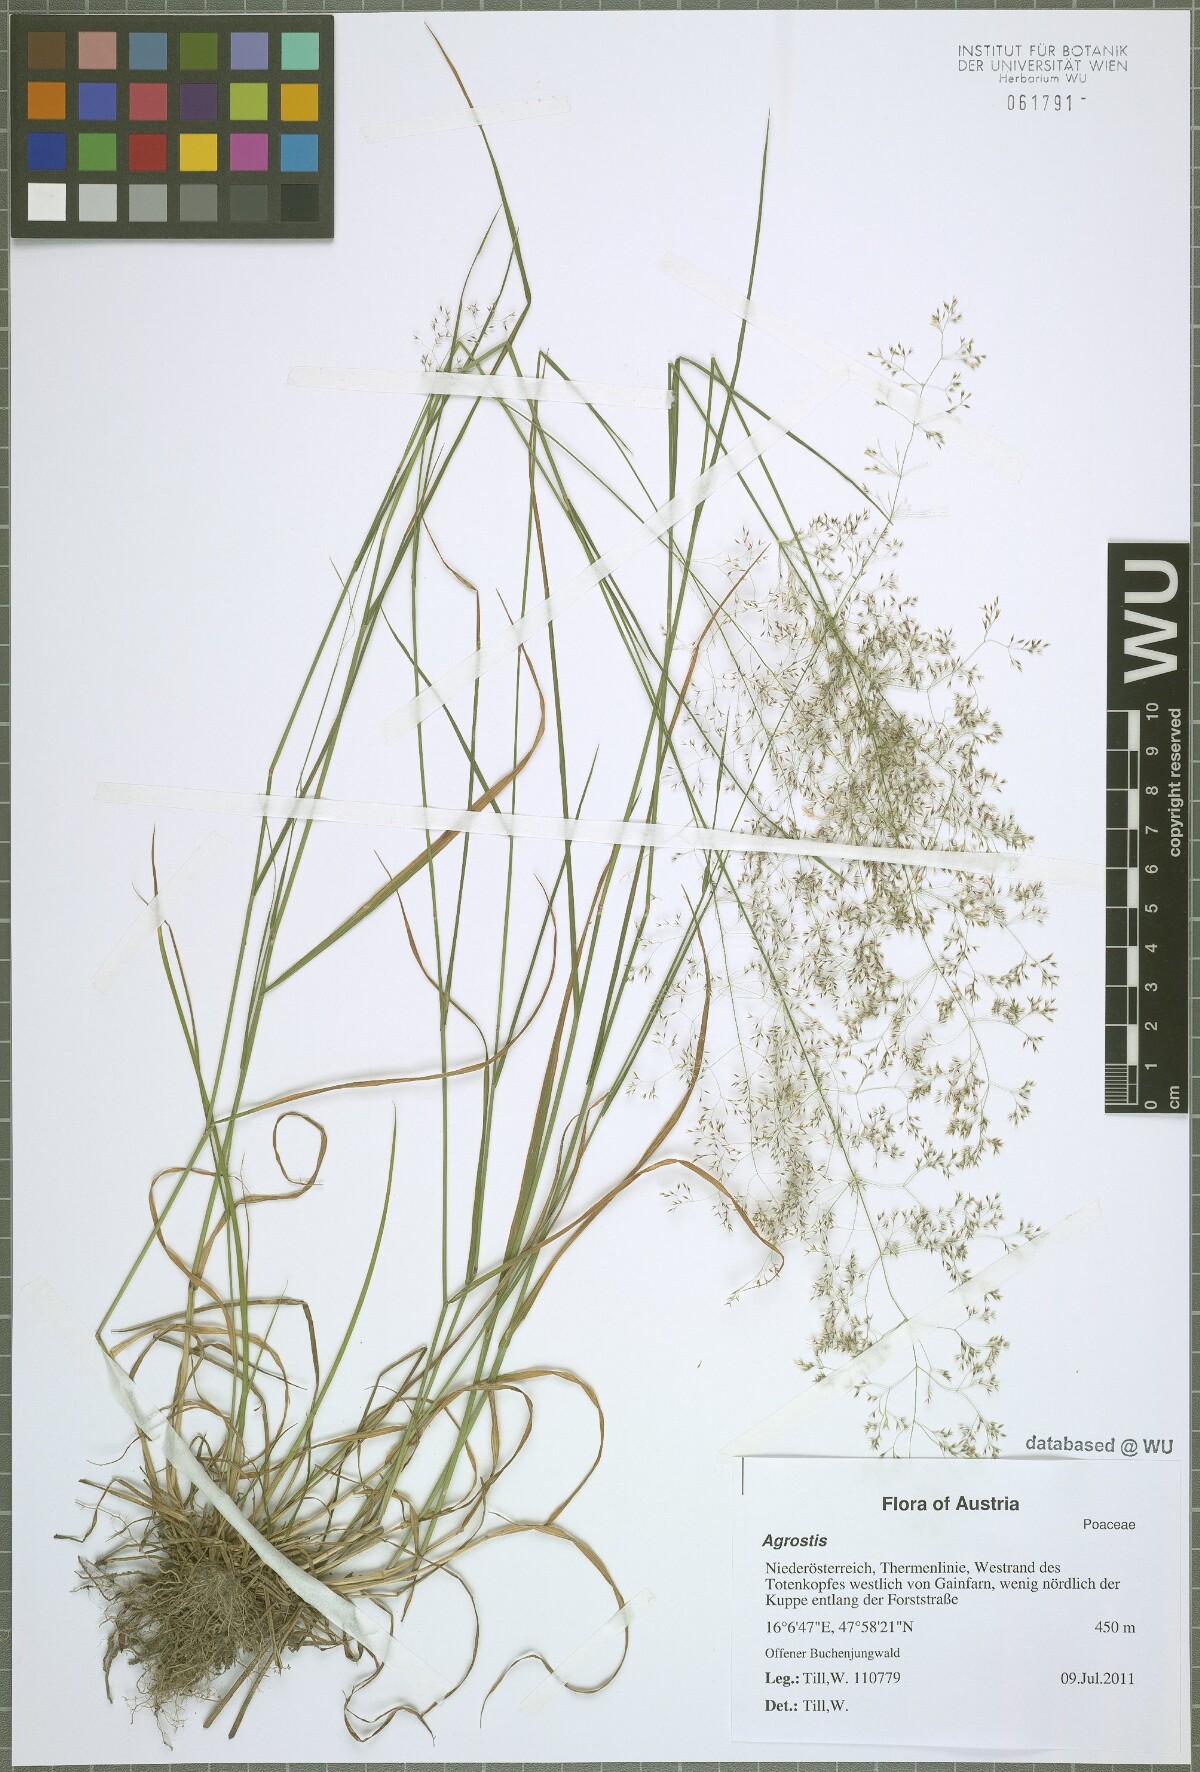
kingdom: Plantae
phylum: Tracheophyta
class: Liliopsida
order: Poales
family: Poaceae
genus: Agrostis
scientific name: Agrostis capillaris
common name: Colonial bentgrass
